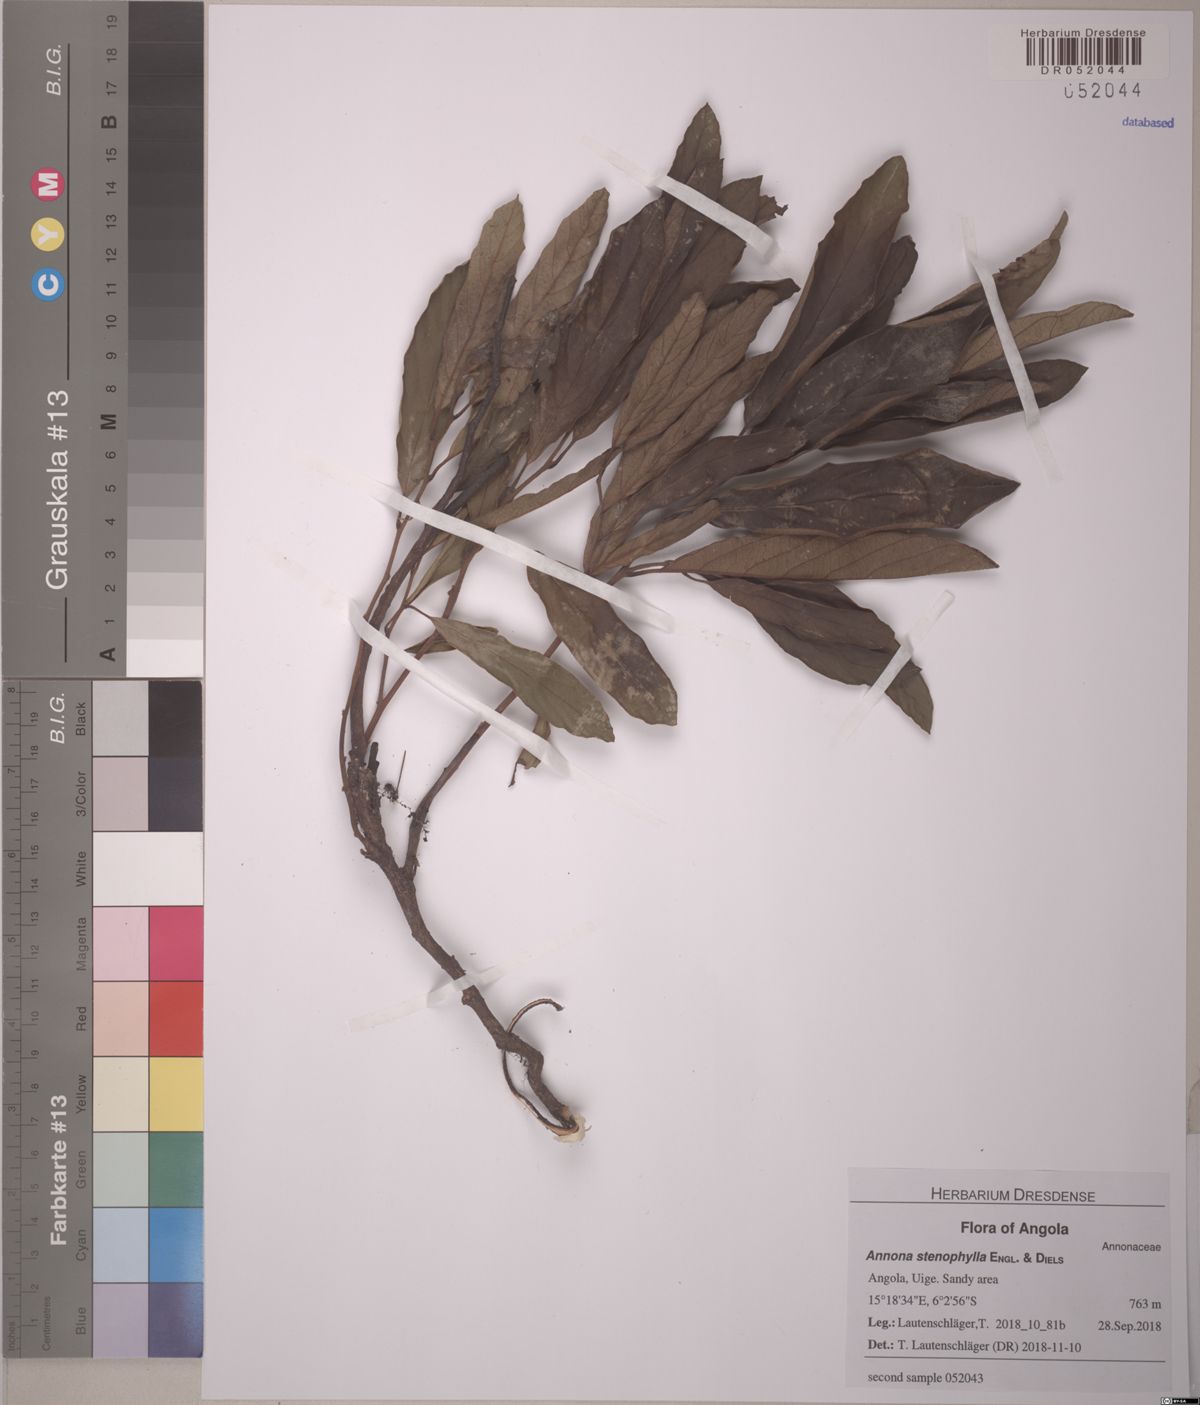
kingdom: Plantae
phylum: Tracheophyta
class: Magnoliopsida
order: Magnoliales
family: Annonaceae
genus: Annona
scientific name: Annona stenophylla
